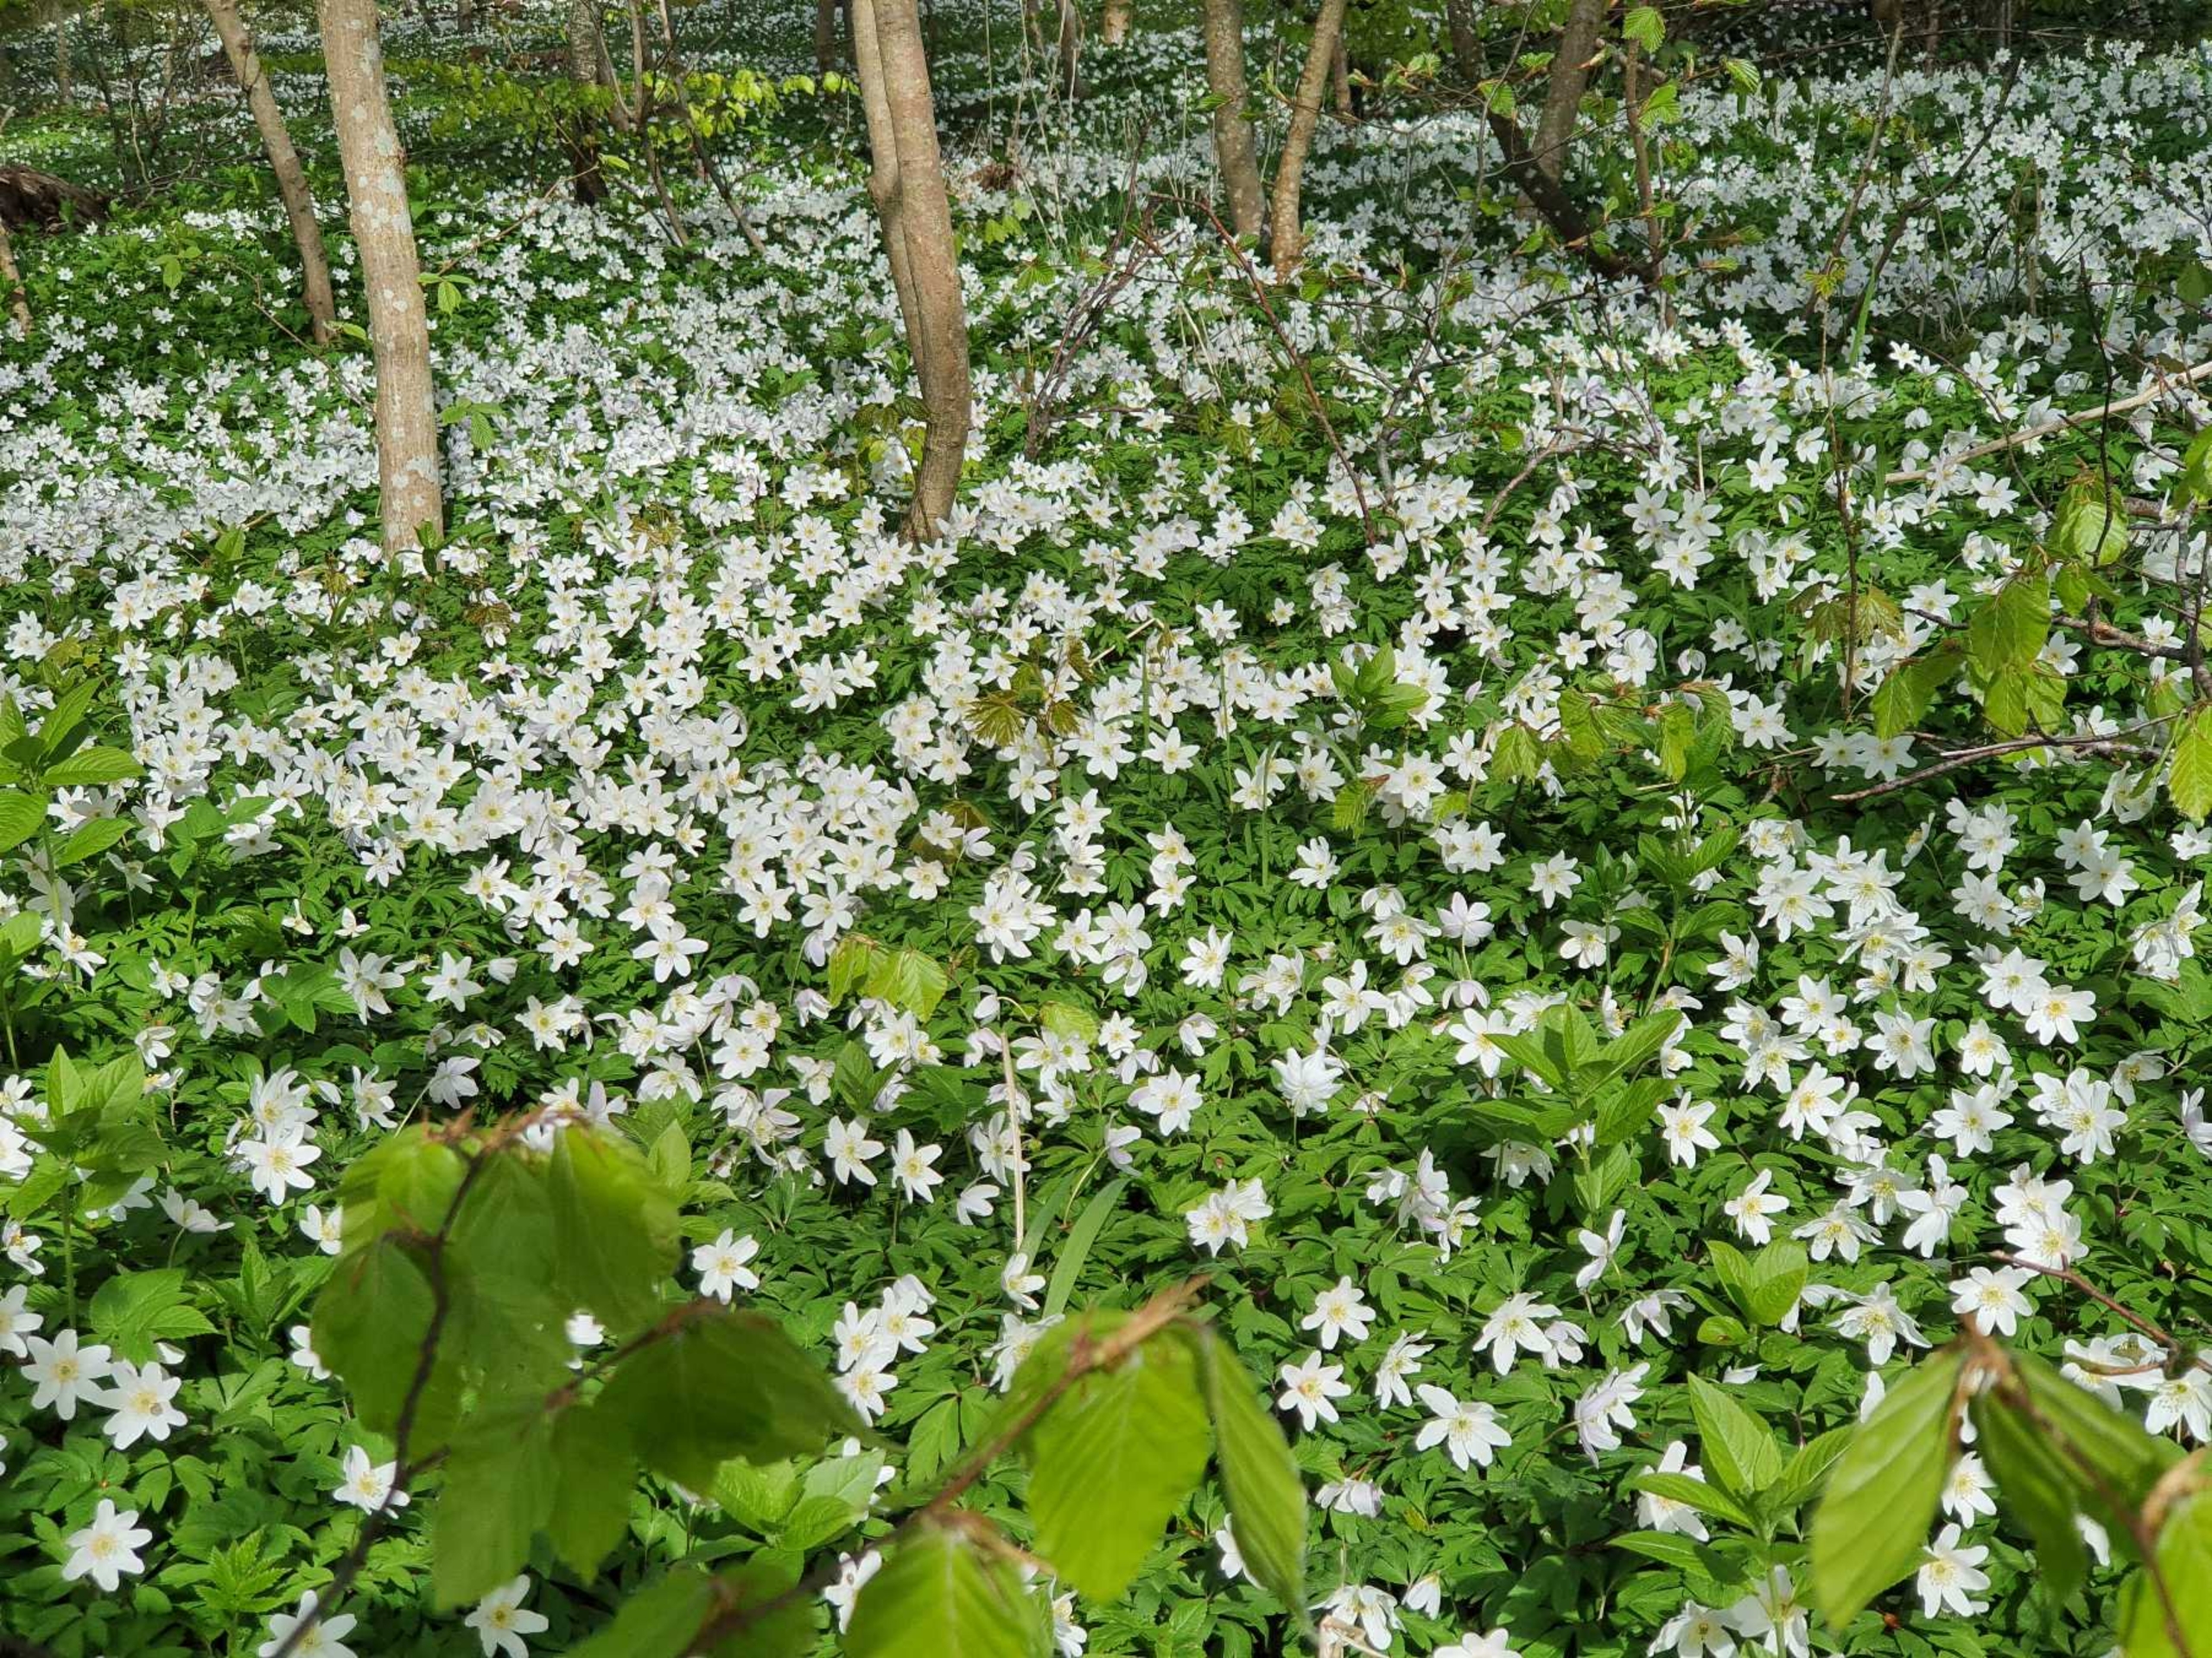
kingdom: Plantae
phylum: Tracheophyta
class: Magnoliopsida
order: Ranunculales
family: Ranunculaceae
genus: Anemone
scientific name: Anemone nemorosa
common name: Hvid anemone
